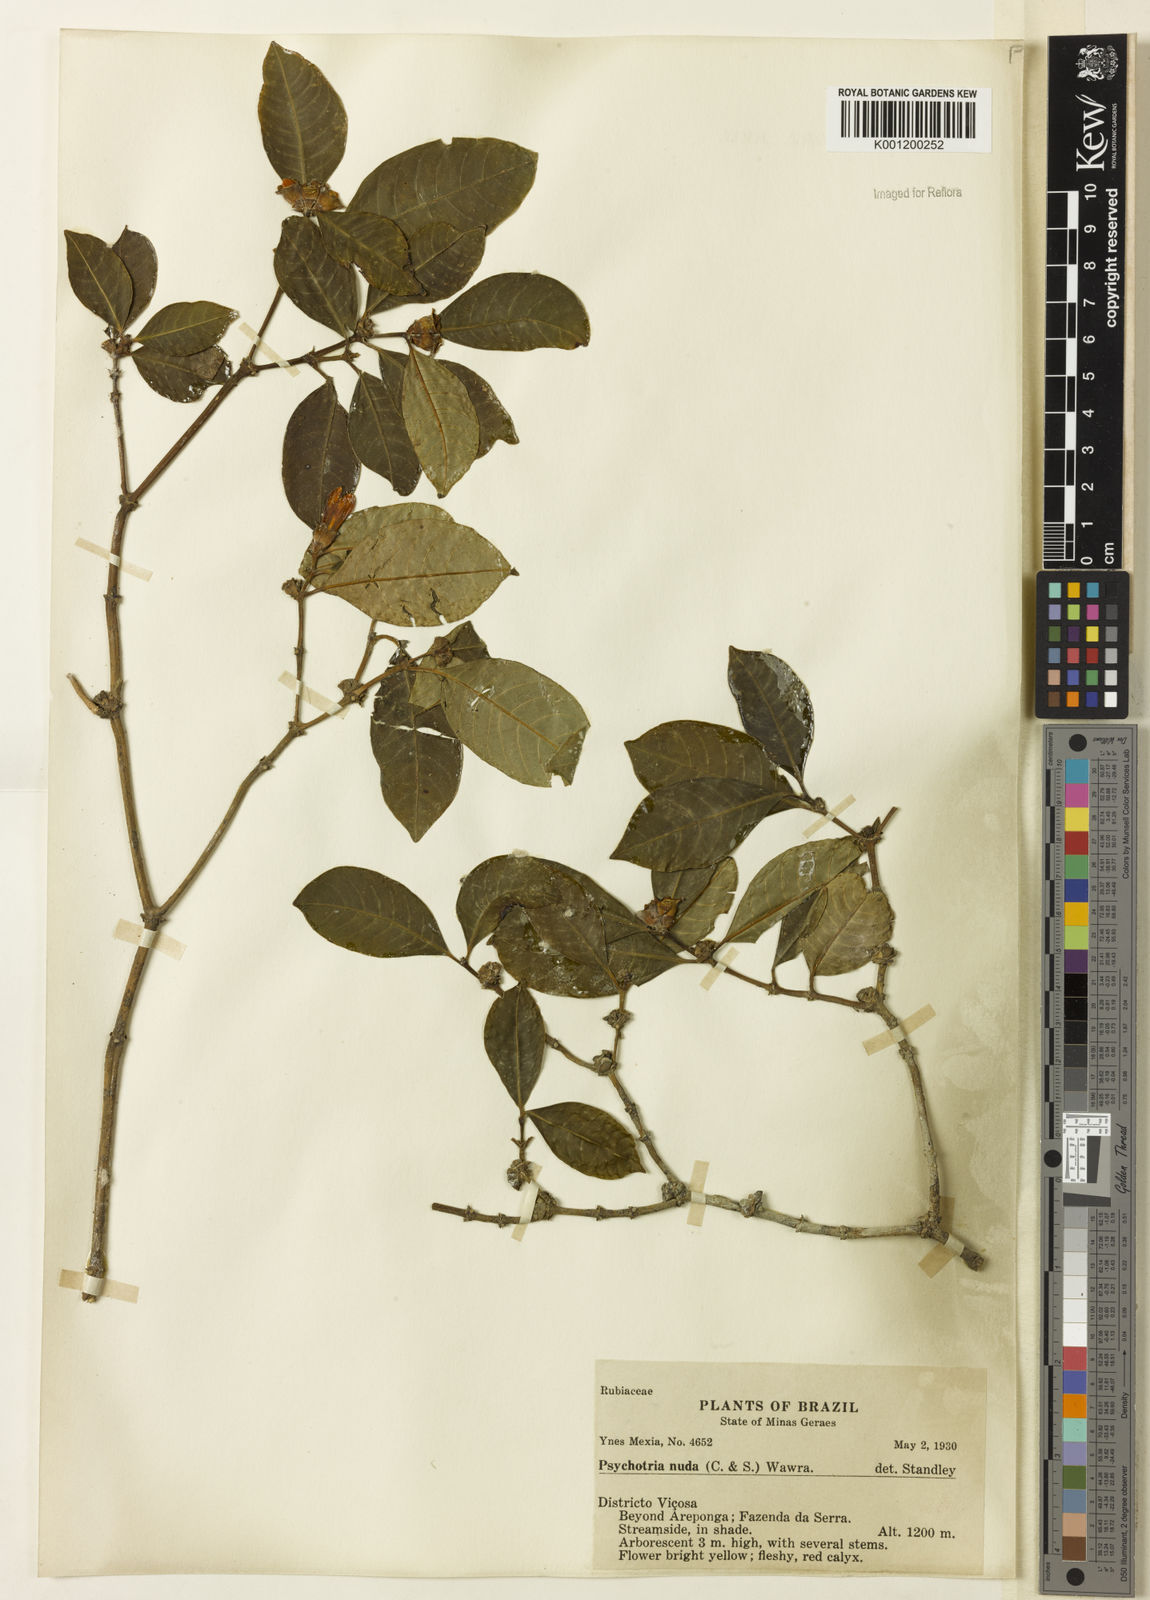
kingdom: Plantae
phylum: Tracheophyta
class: Magnoliopsida
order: Gentianales
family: Rubiaceae
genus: Psychotria
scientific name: Psychotria
